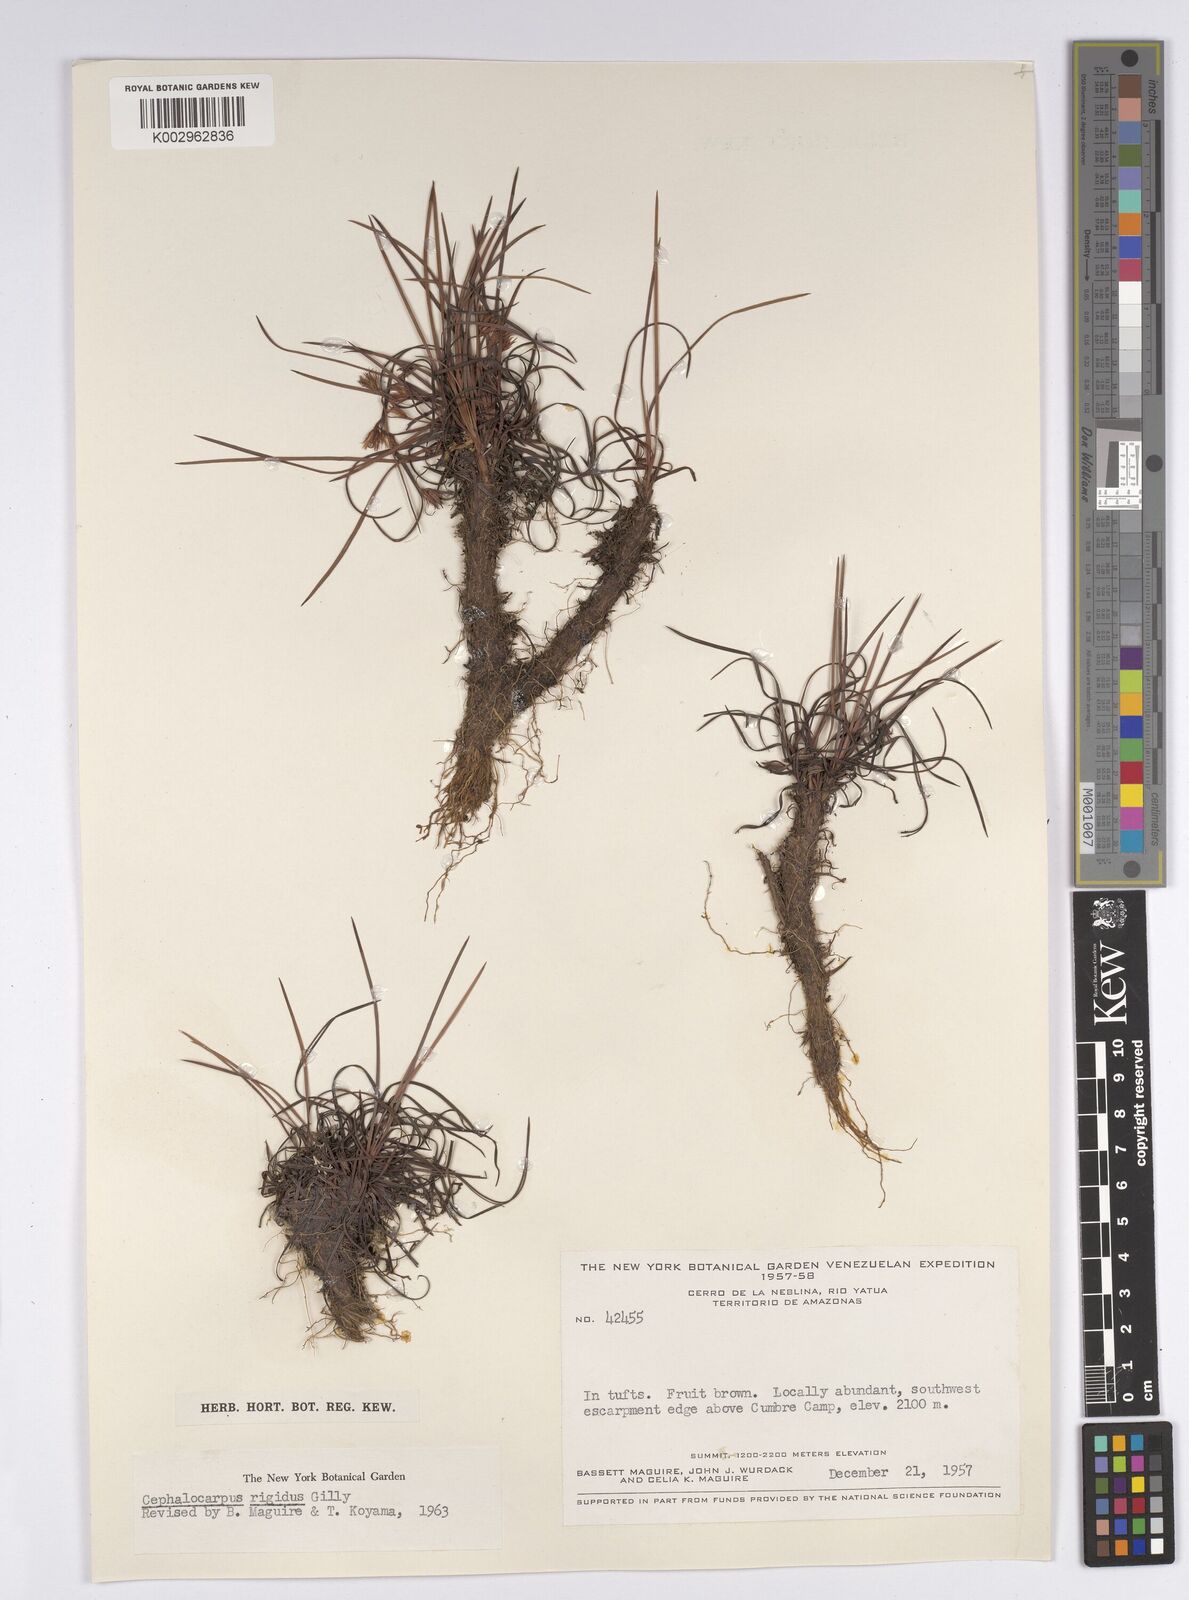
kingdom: Plantae
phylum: Tracheophyta
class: Liliopsida
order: Poales
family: Cyperaceae
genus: Cephalocarpus
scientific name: Cephalocarpus rigidus
